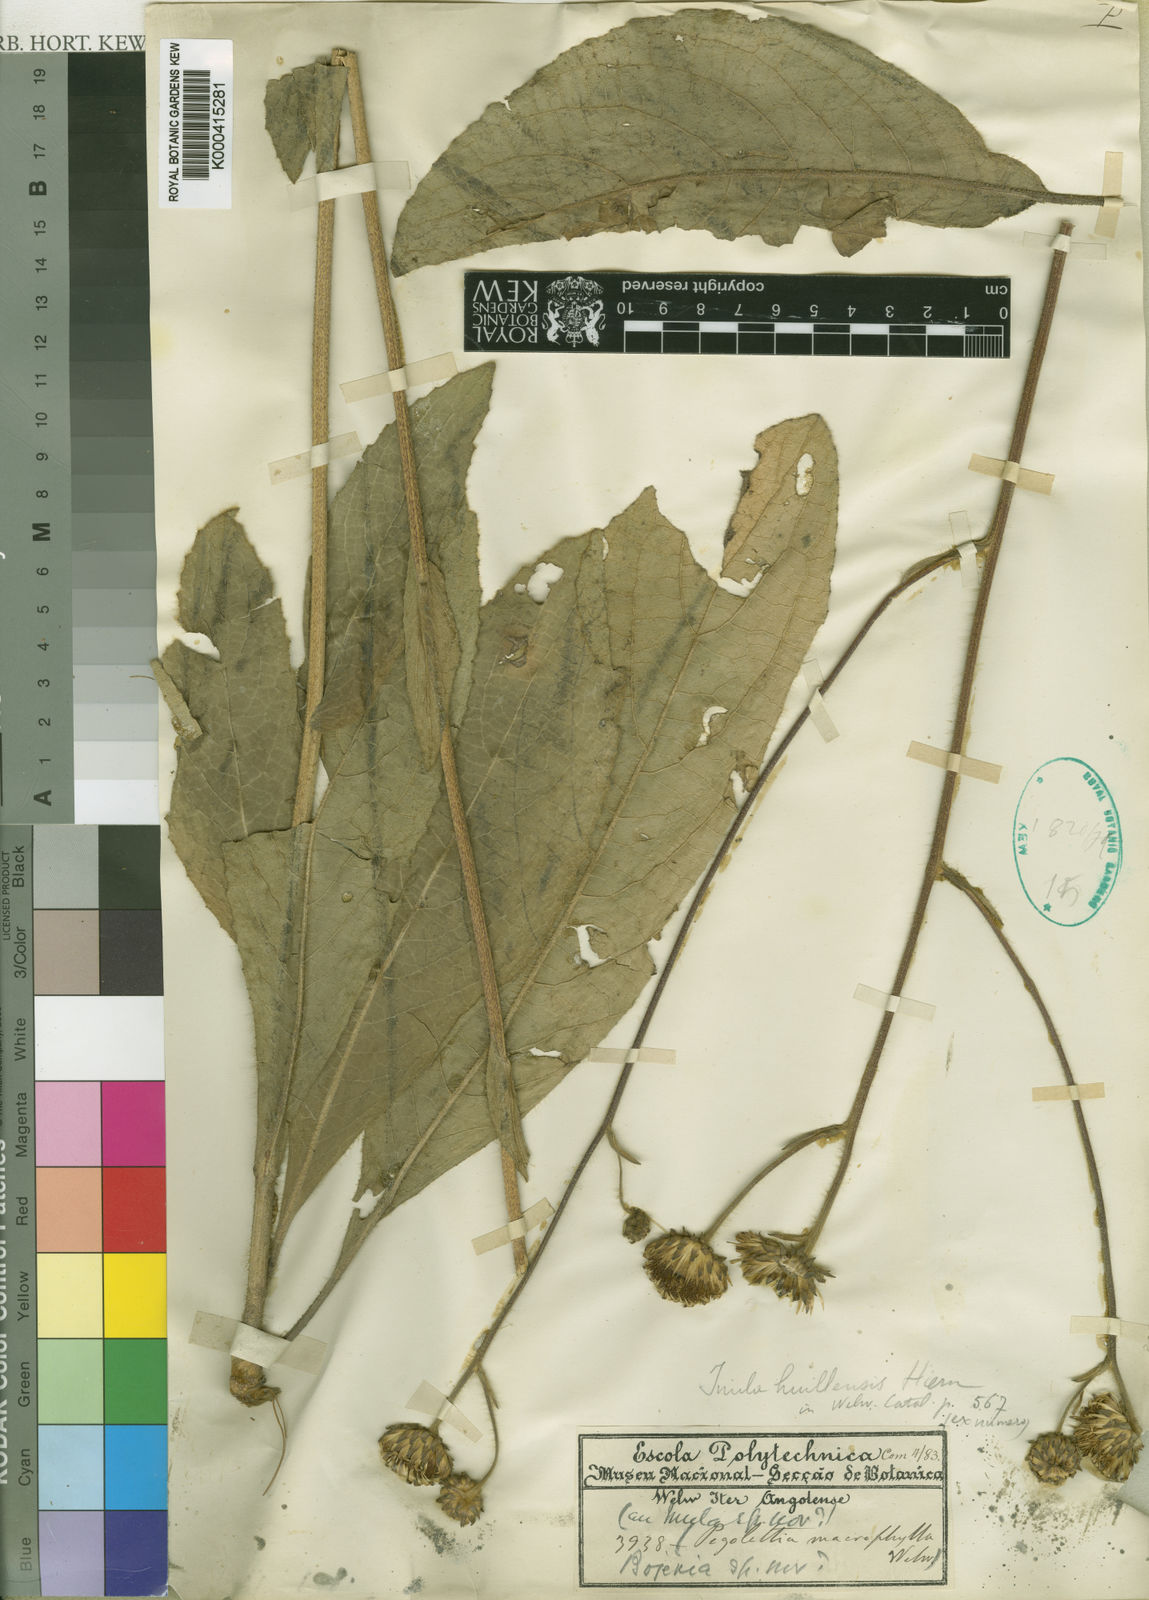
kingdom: Plantae
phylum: Tracheophyta
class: Magnoliopsida
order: Asterales
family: Asteraceae
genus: Inula
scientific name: Inula huillensis
